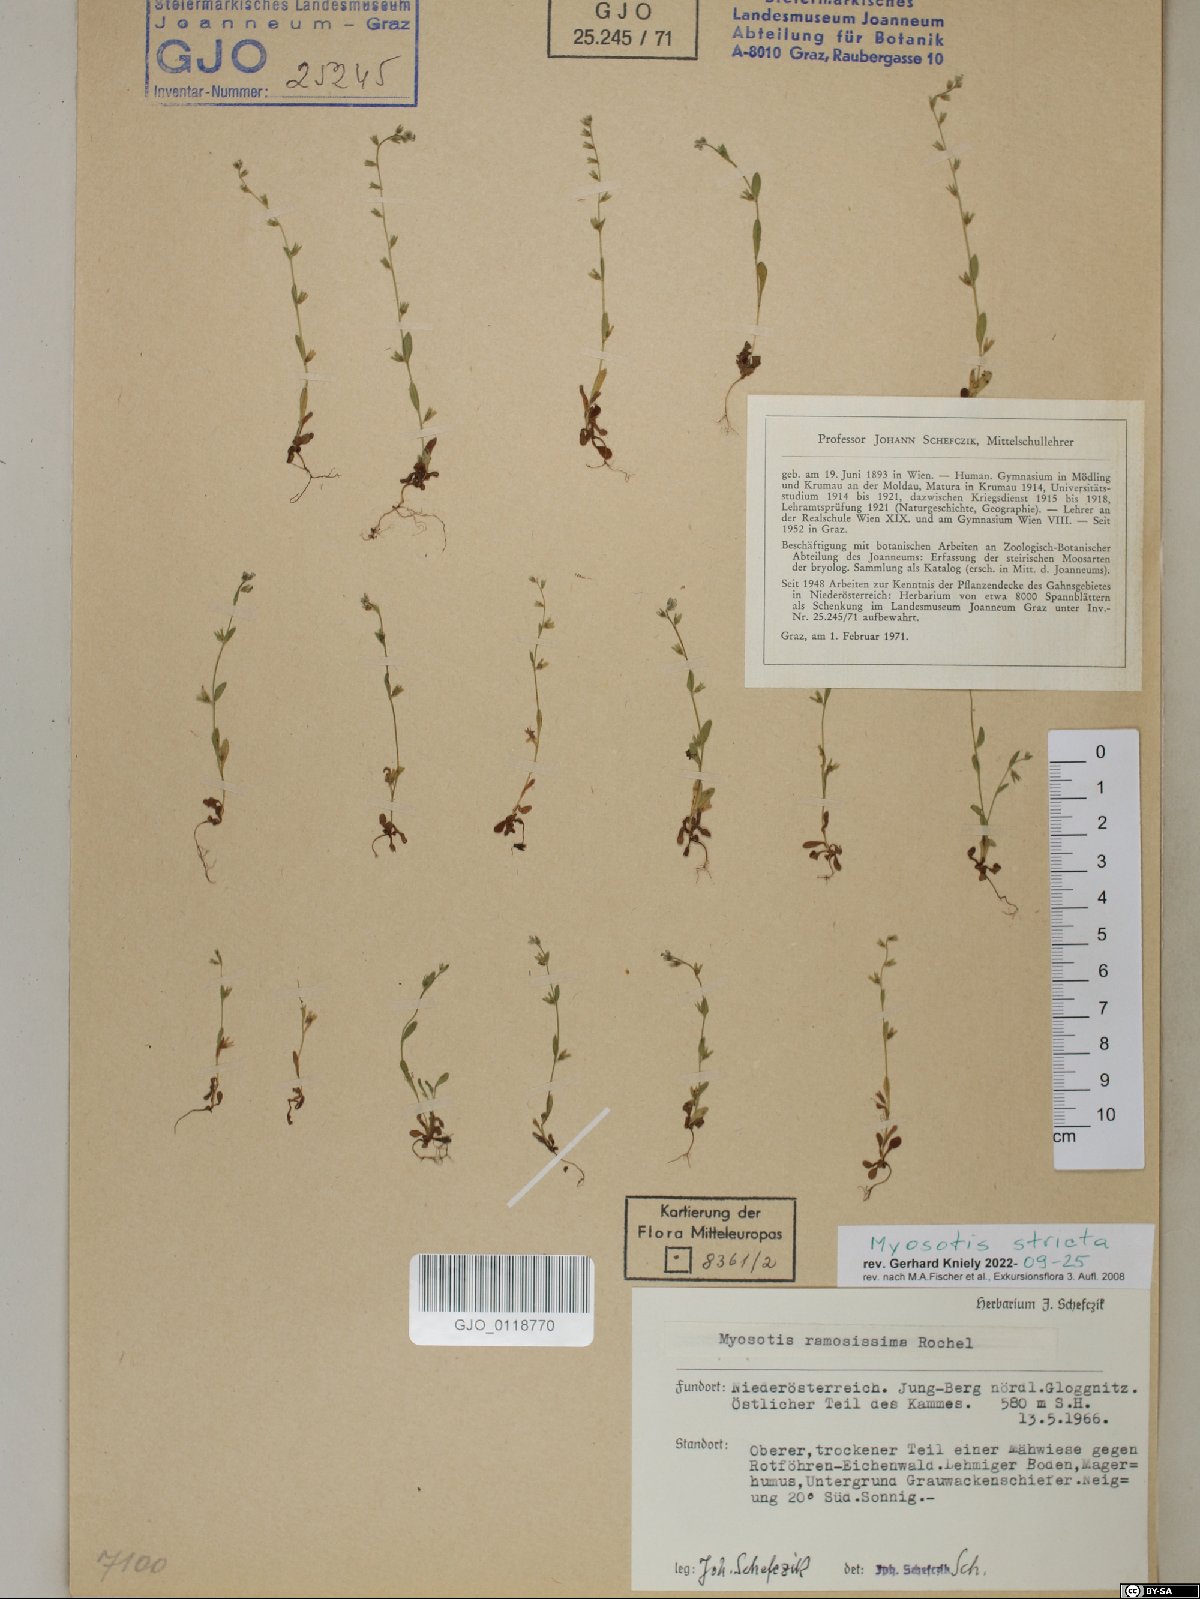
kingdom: Plantae
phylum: Tracheophyta
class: Magnoliopsida
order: Boraginales
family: Boraginaceae
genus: Myosotis
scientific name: Myosotis stricta
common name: Strict forget-me-not
